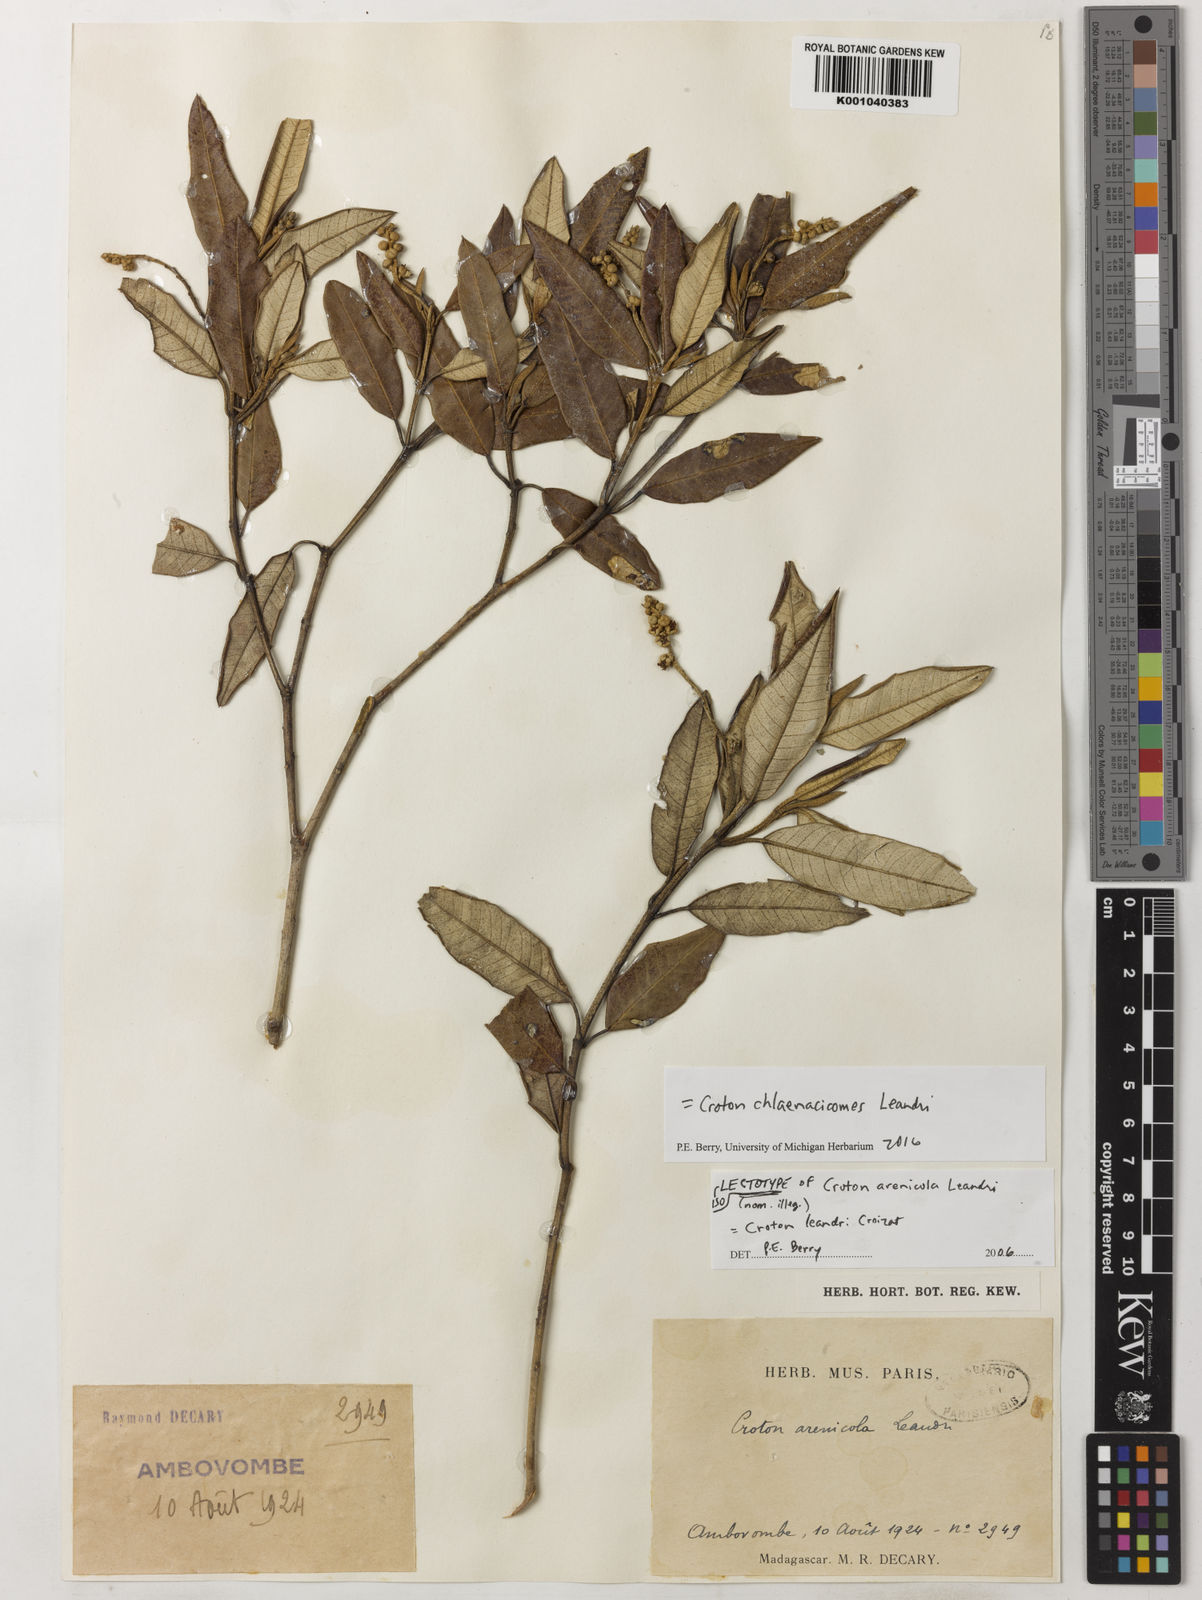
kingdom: Plantae
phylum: Tracheophyta
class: Magnoliopsida
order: Malpighiales
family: Euphorbiaceae
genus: Croton
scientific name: Croton chlaenacicomes
